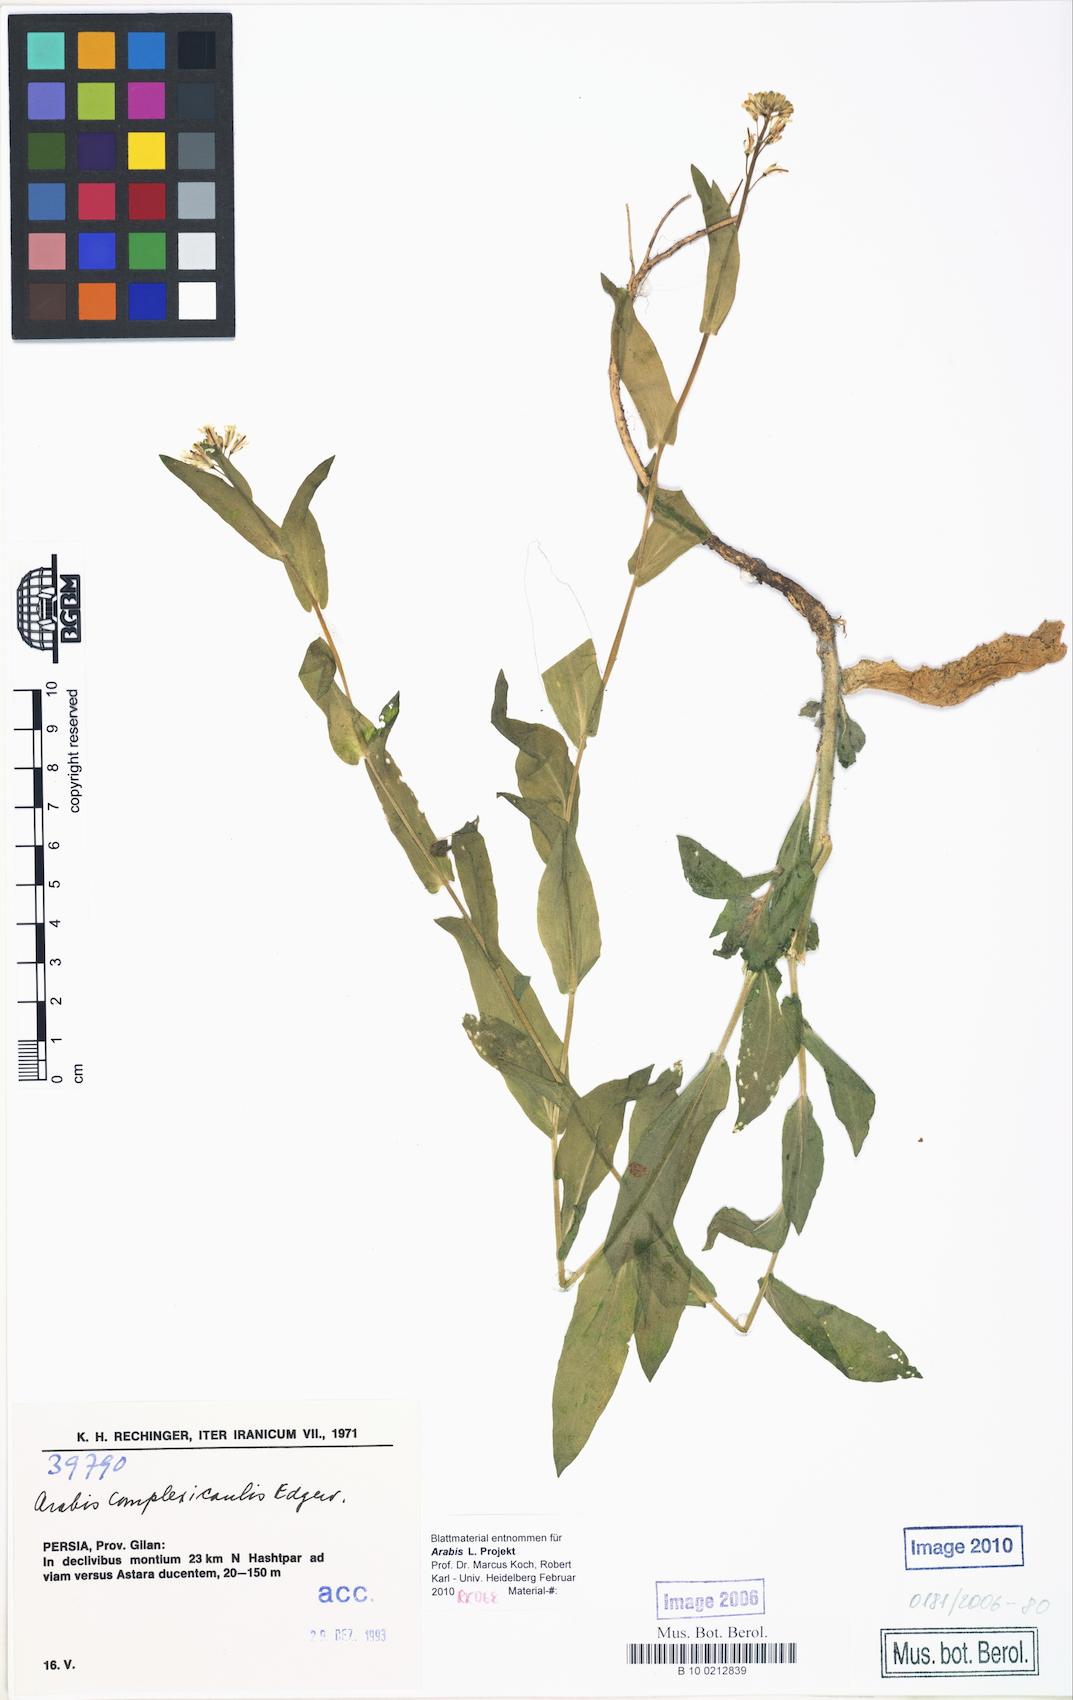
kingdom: Plantae
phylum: Tracheophyta
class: Magnoliopsida
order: Brassicales
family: Brassicaceae
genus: Turritis
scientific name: Turritis
